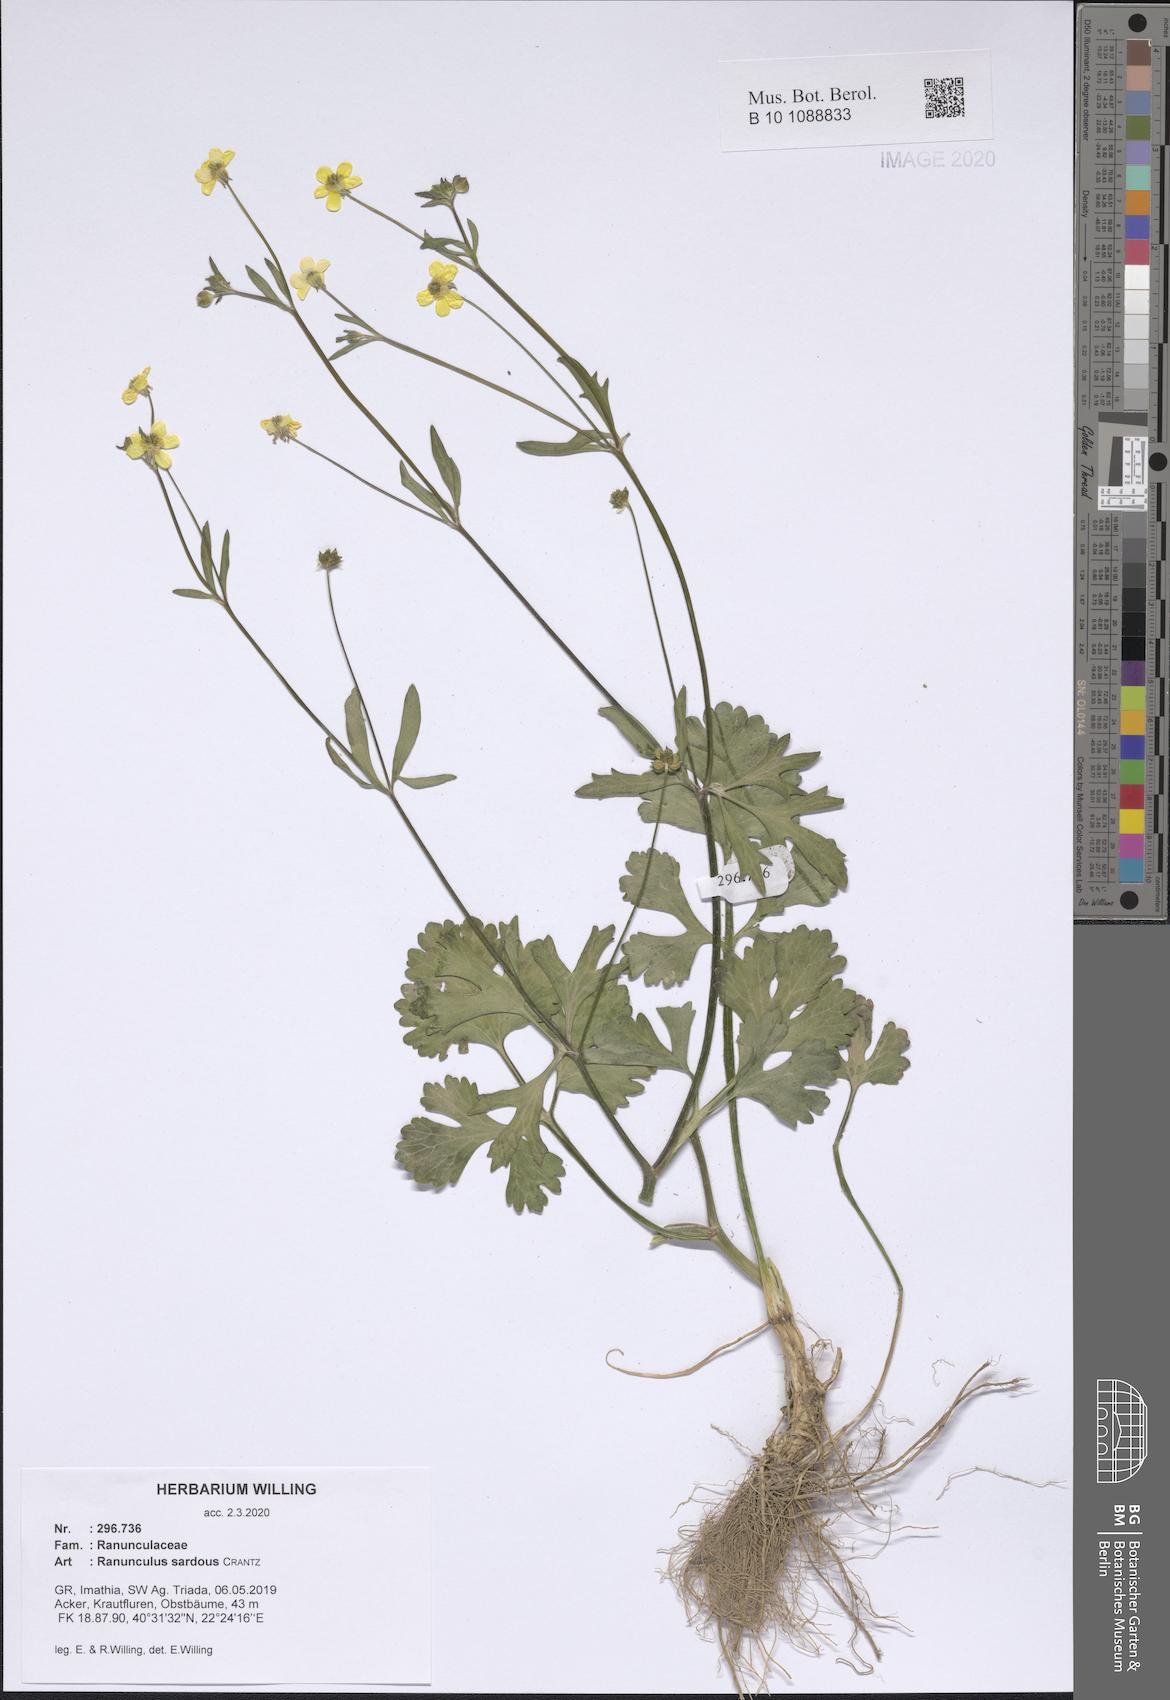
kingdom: Plantae
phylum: Tracheophyta
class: Magnoliopsida
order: Ranunculales
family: Ranunculaceae
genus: Ranunculus
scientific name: Ranunculus sardous
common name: Hairy buttercup
